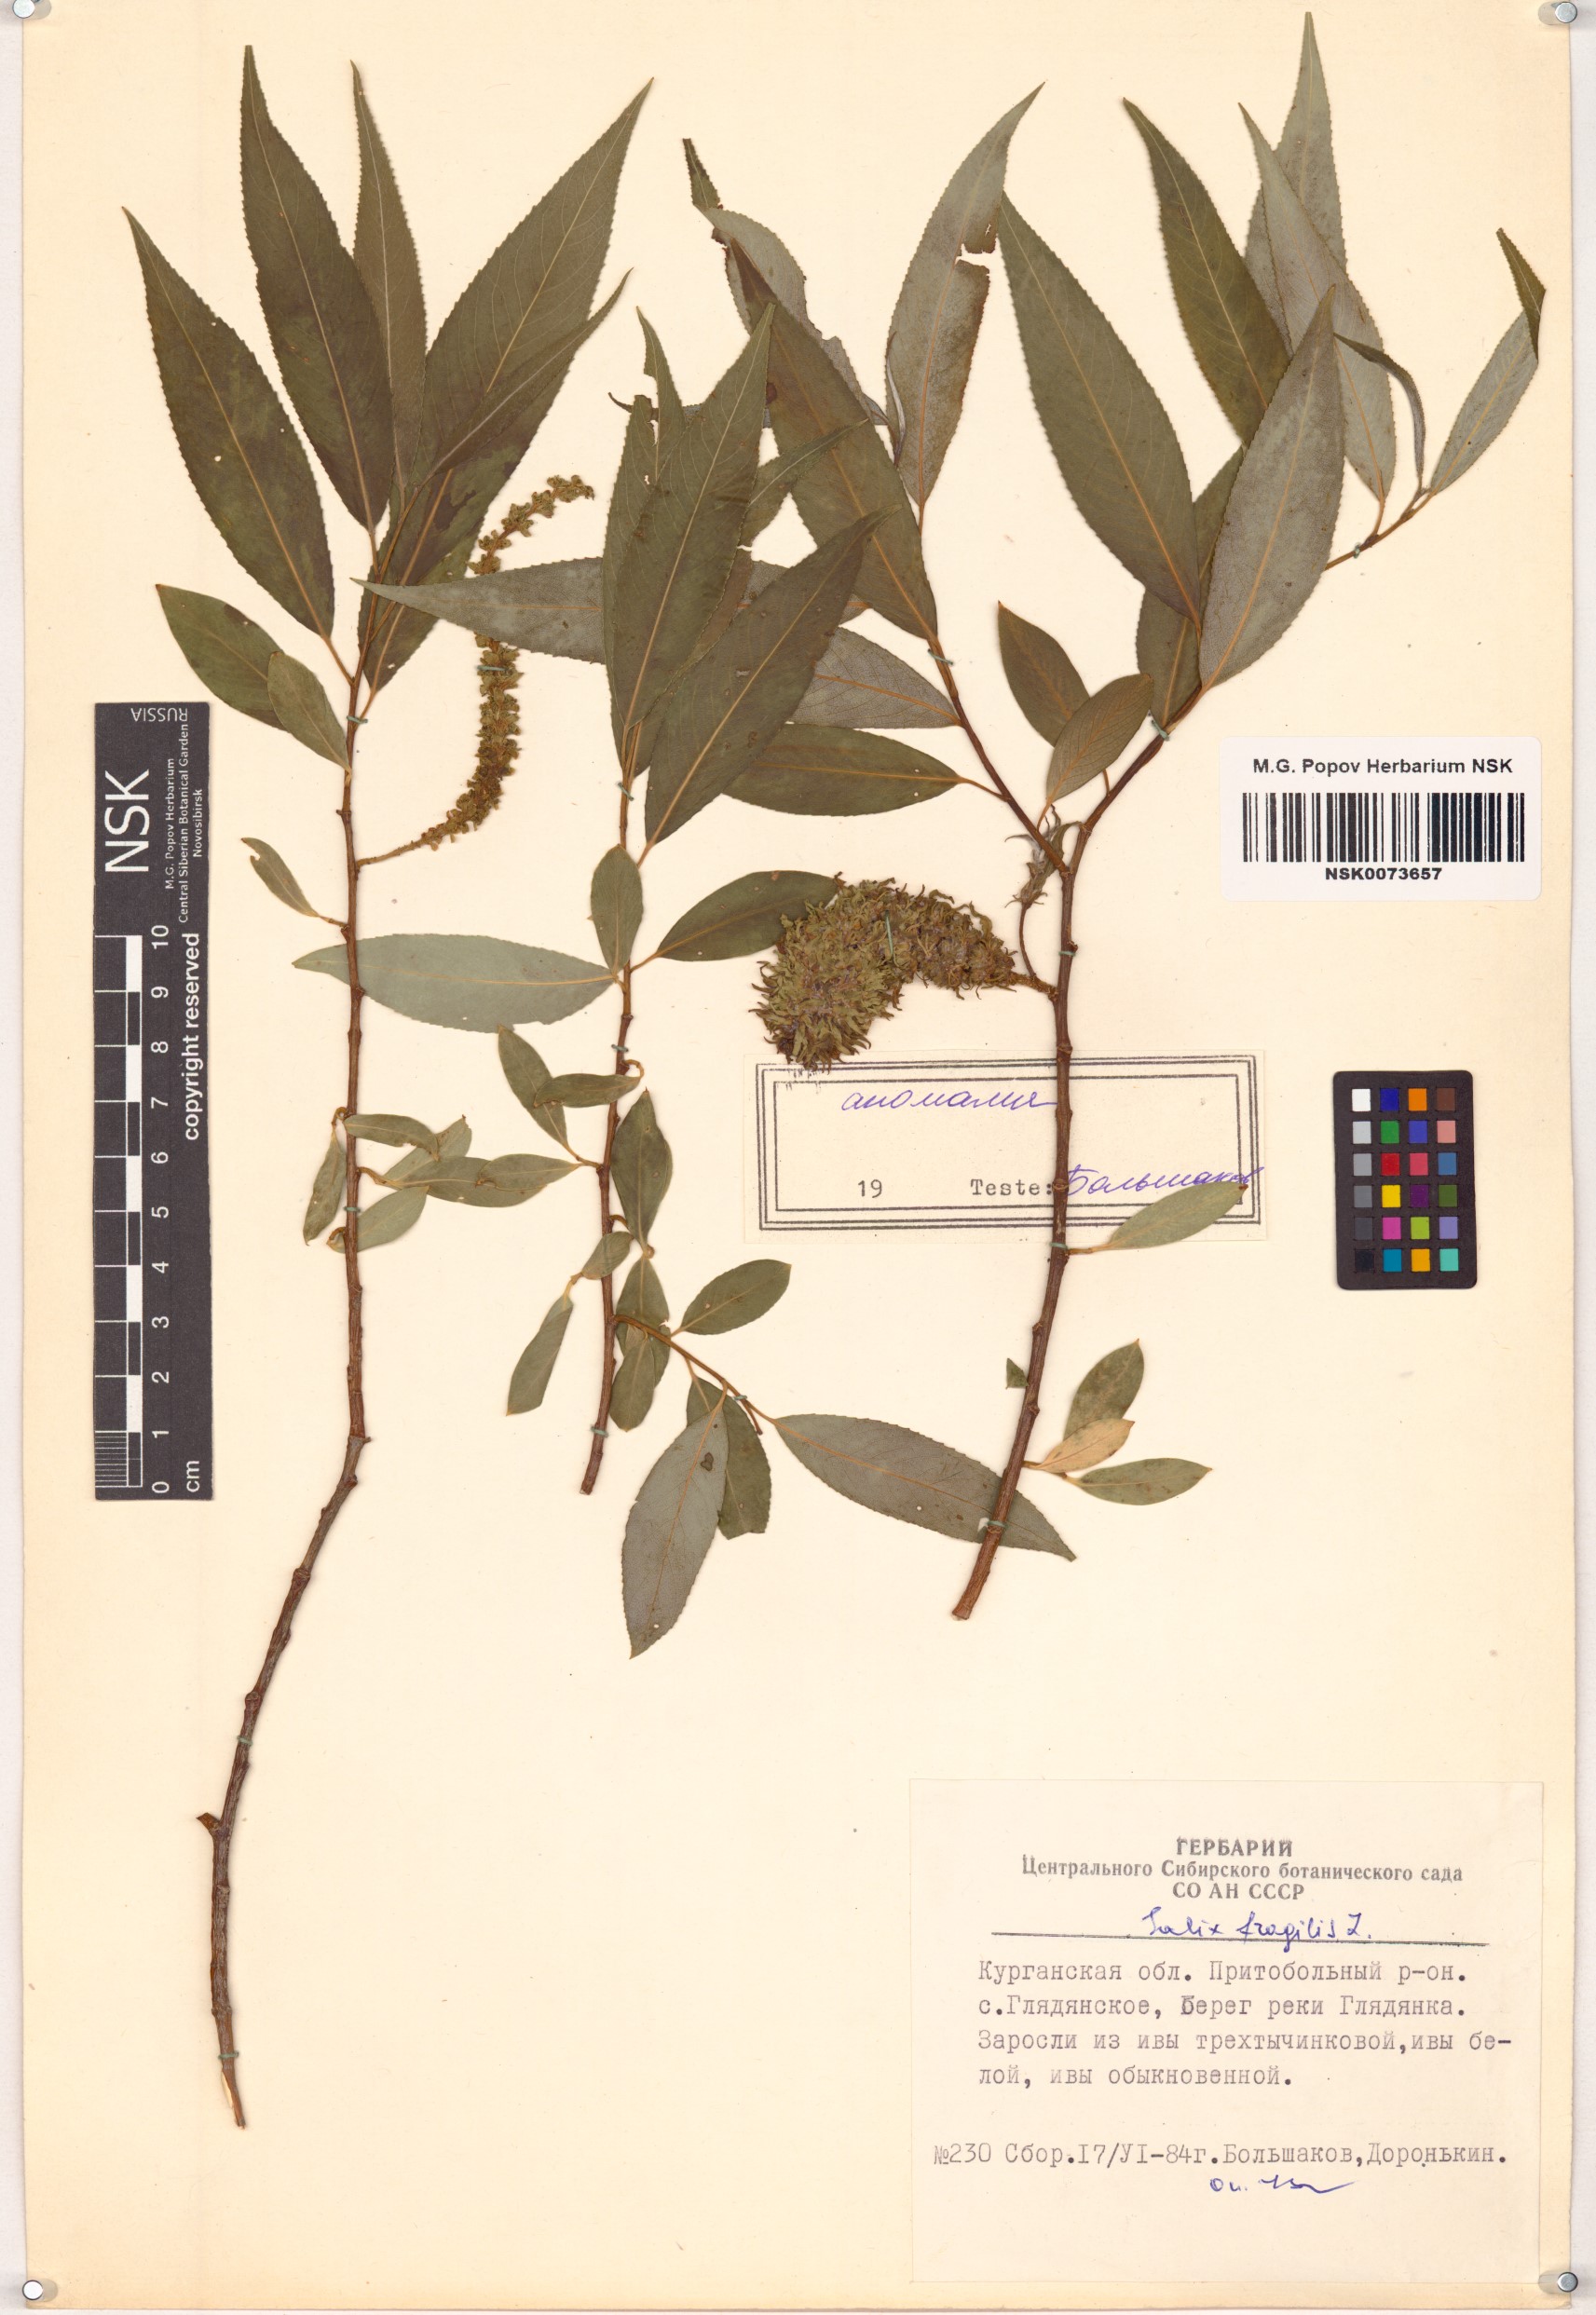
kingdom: Plantae
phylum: Tracheophyta
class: Magnoliopsida
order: Malpighiales
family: Salicaceae
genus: Salix
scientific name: Salix fragilis
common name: Crack willow
